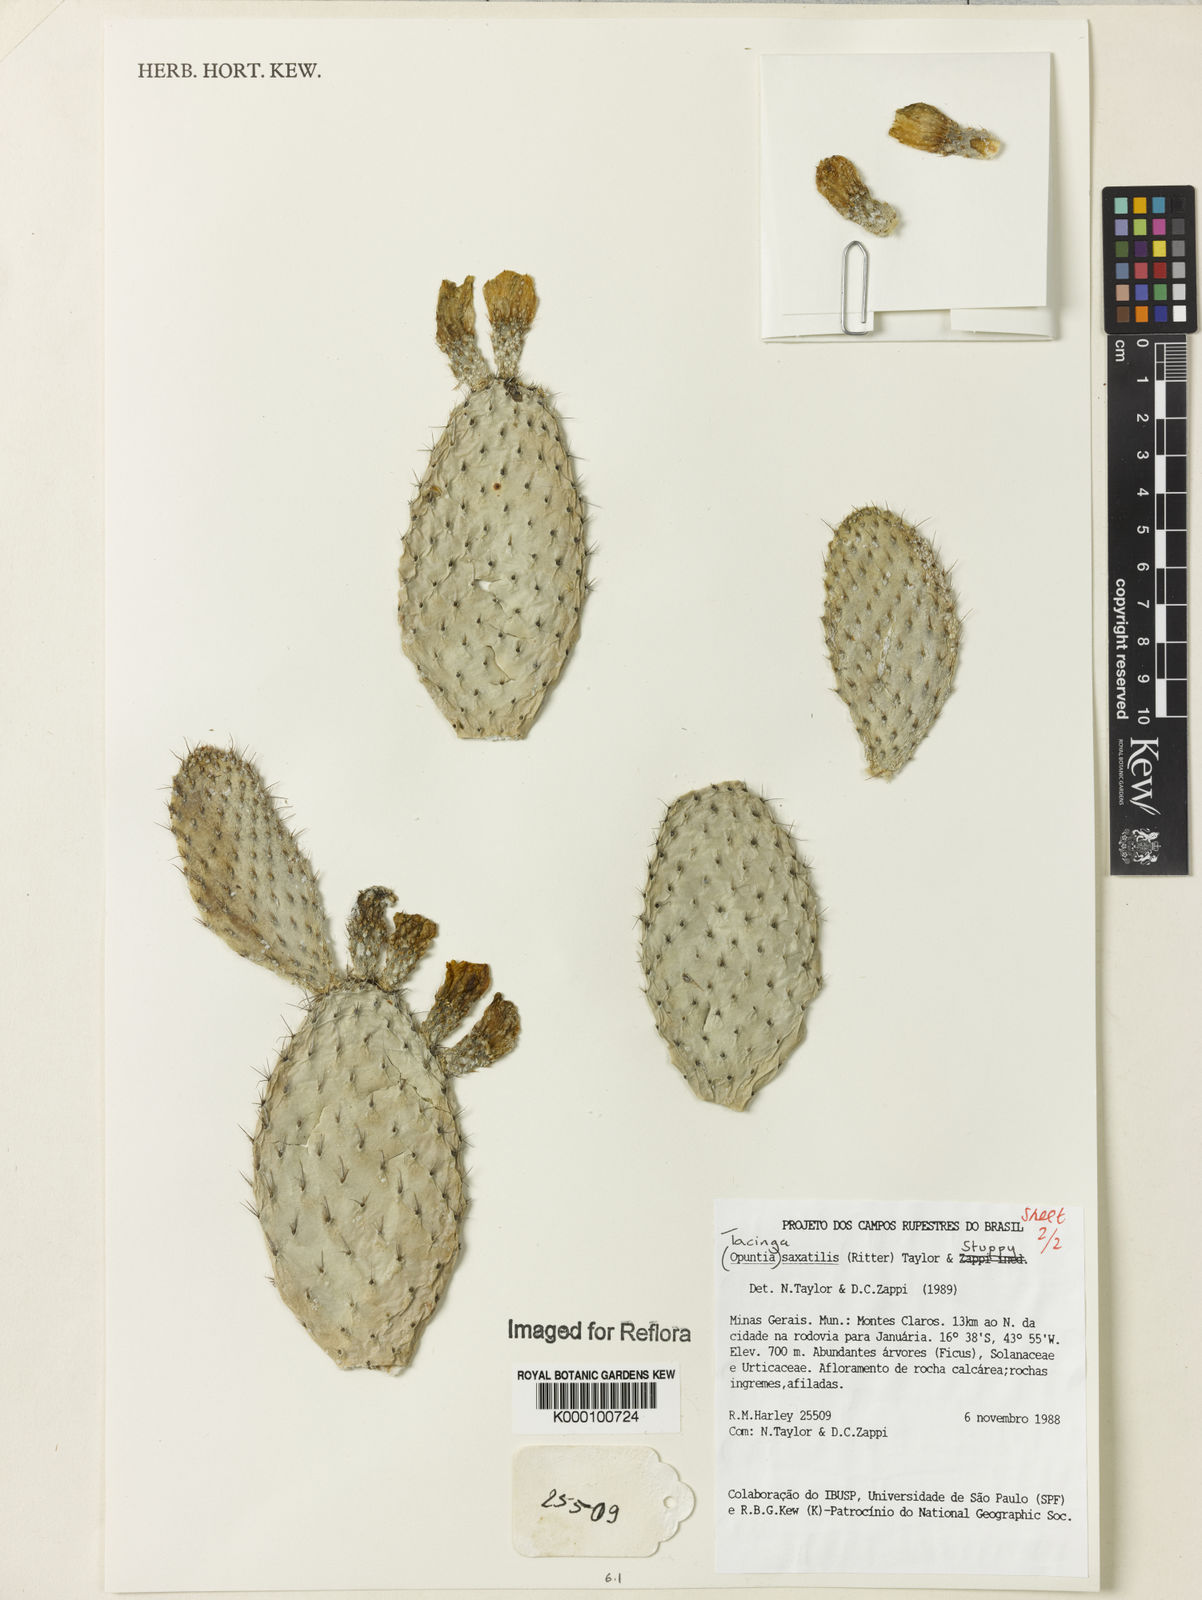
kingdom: Plantae
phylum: Tracheophyta
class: Magnoliopsida
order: Caryophyllales
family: Cactaceae
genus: Tacinga
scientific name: Tacinga saxatilis
